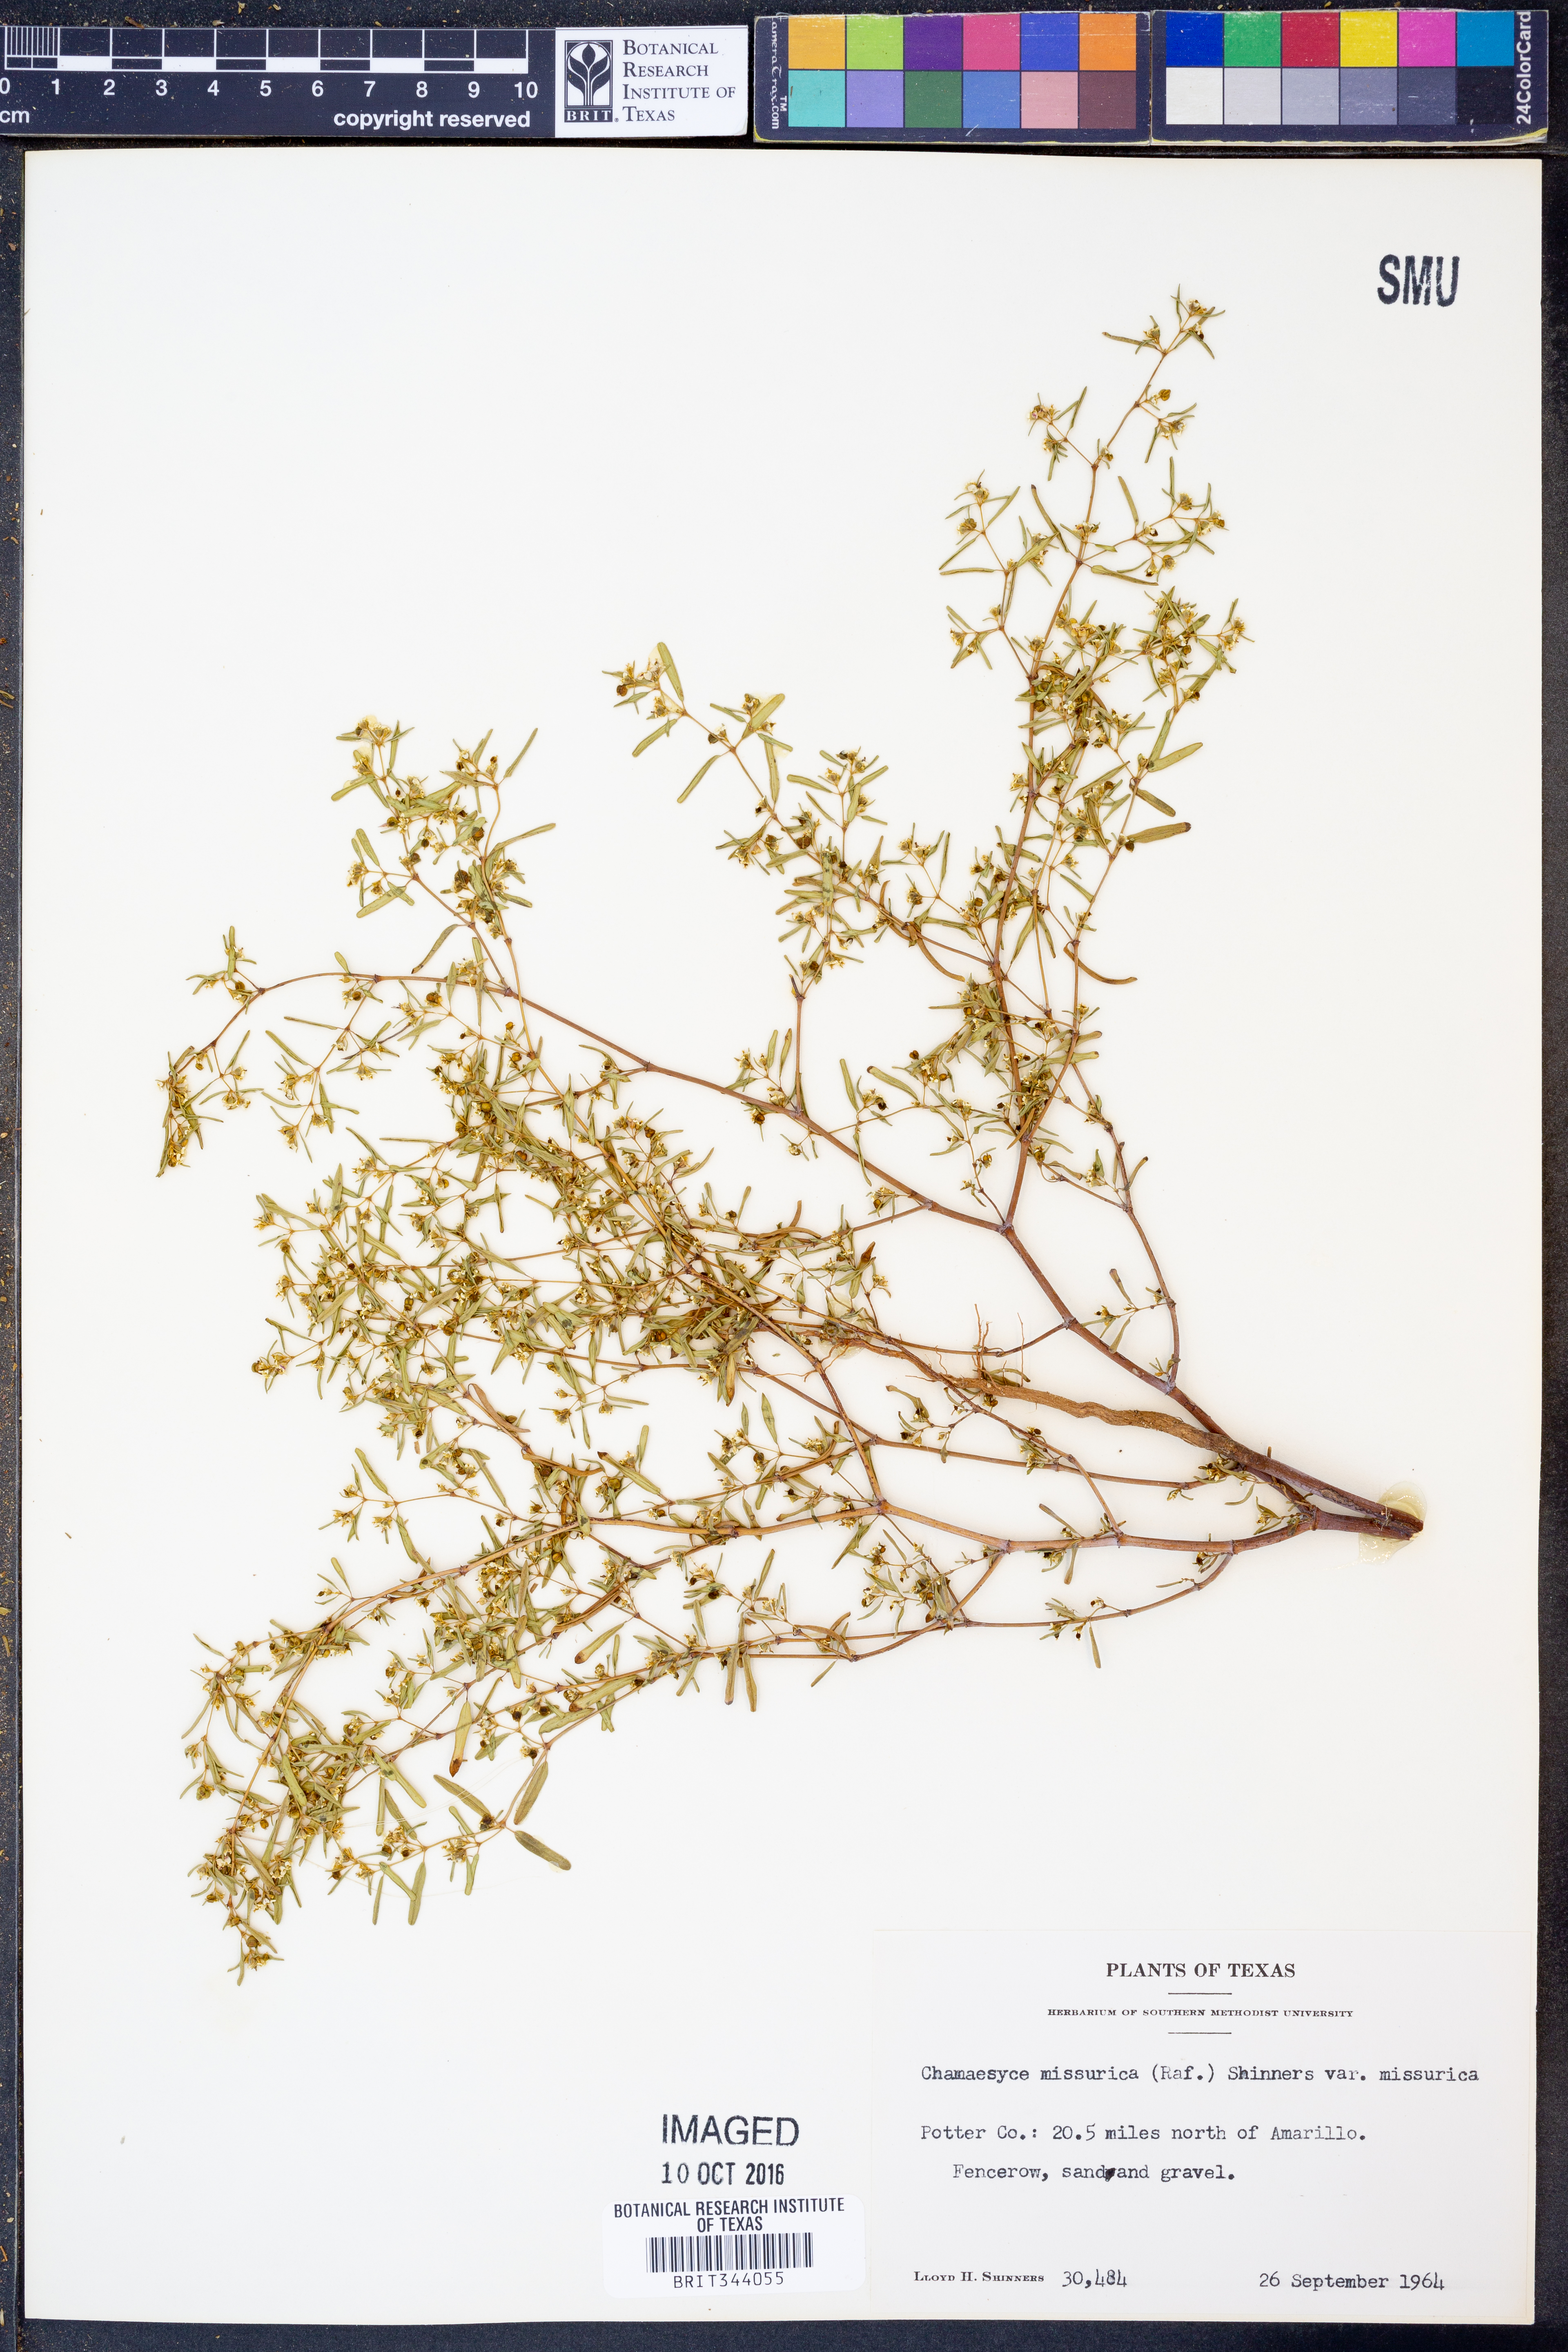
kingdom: Plantae
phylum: Tracheophyta
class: Magnoliopsida
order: Malpighiales
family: Euphorbiaceae
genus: Euphorbia
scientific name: Euphorbia missurica
